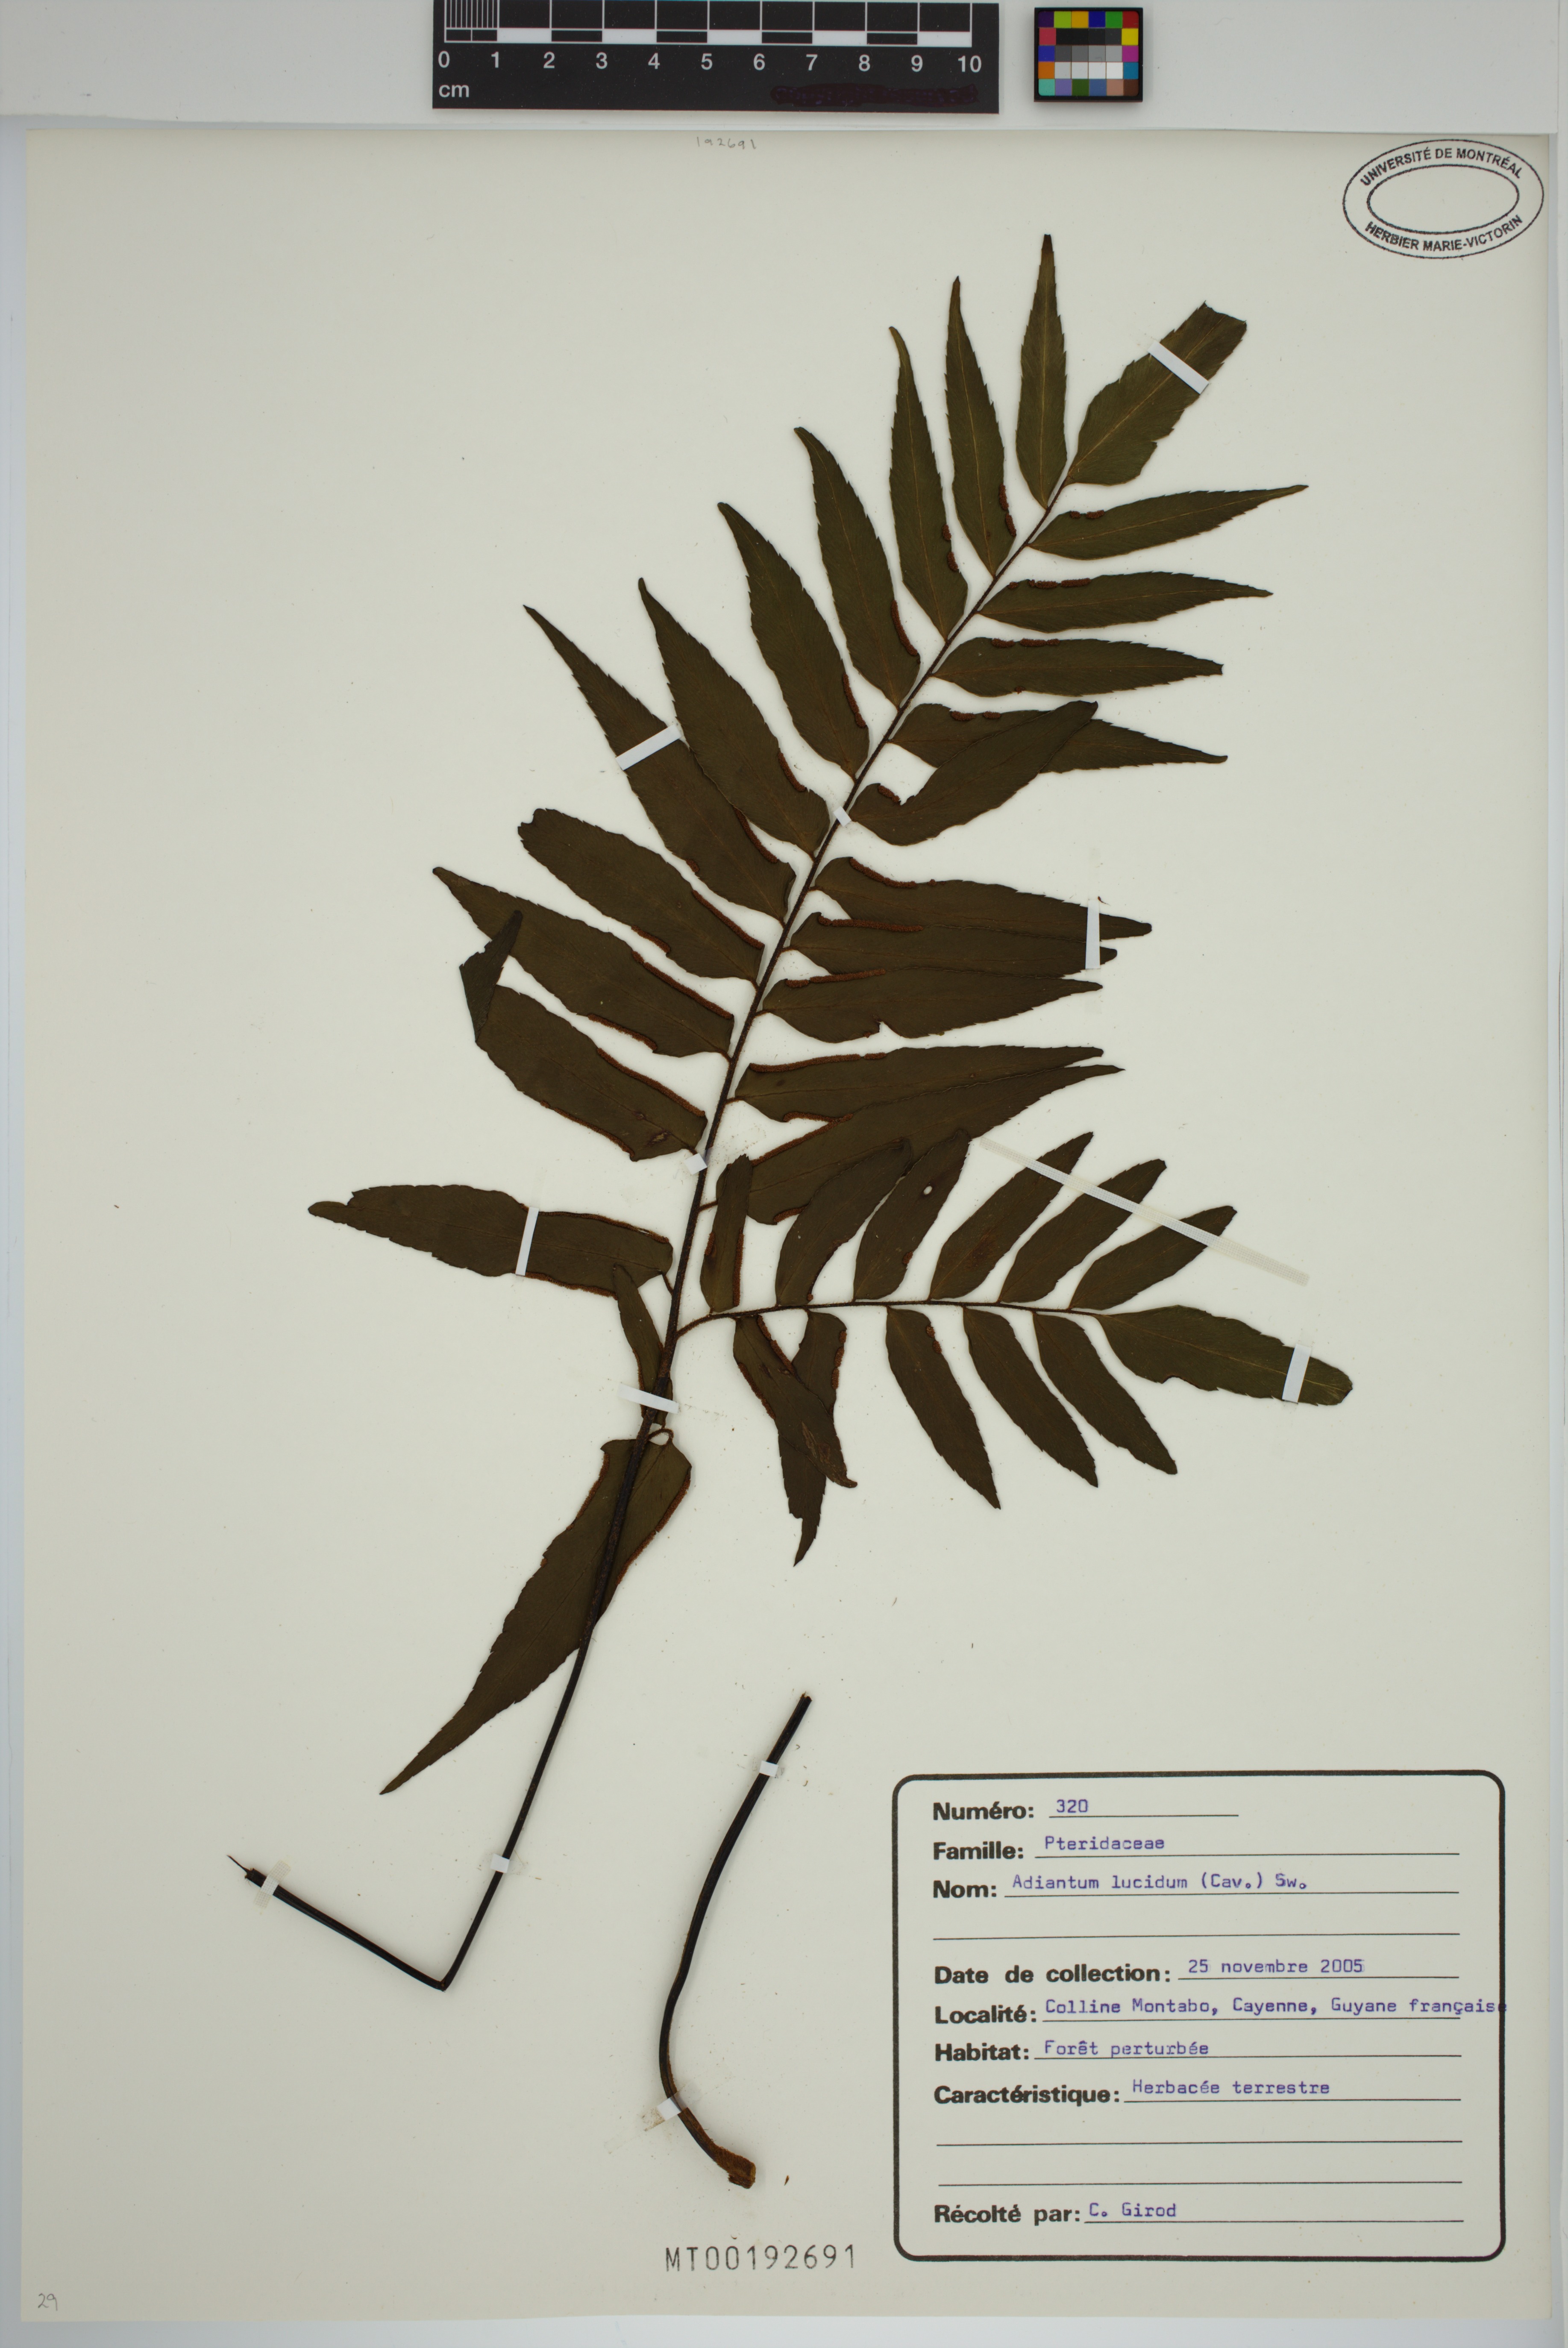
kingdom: Plantae
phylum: Tracheophyta
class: Polypodiopsida
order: Polypodiales
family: Pteridaceae
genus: Adiantum
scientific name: Adiantum lucidum
